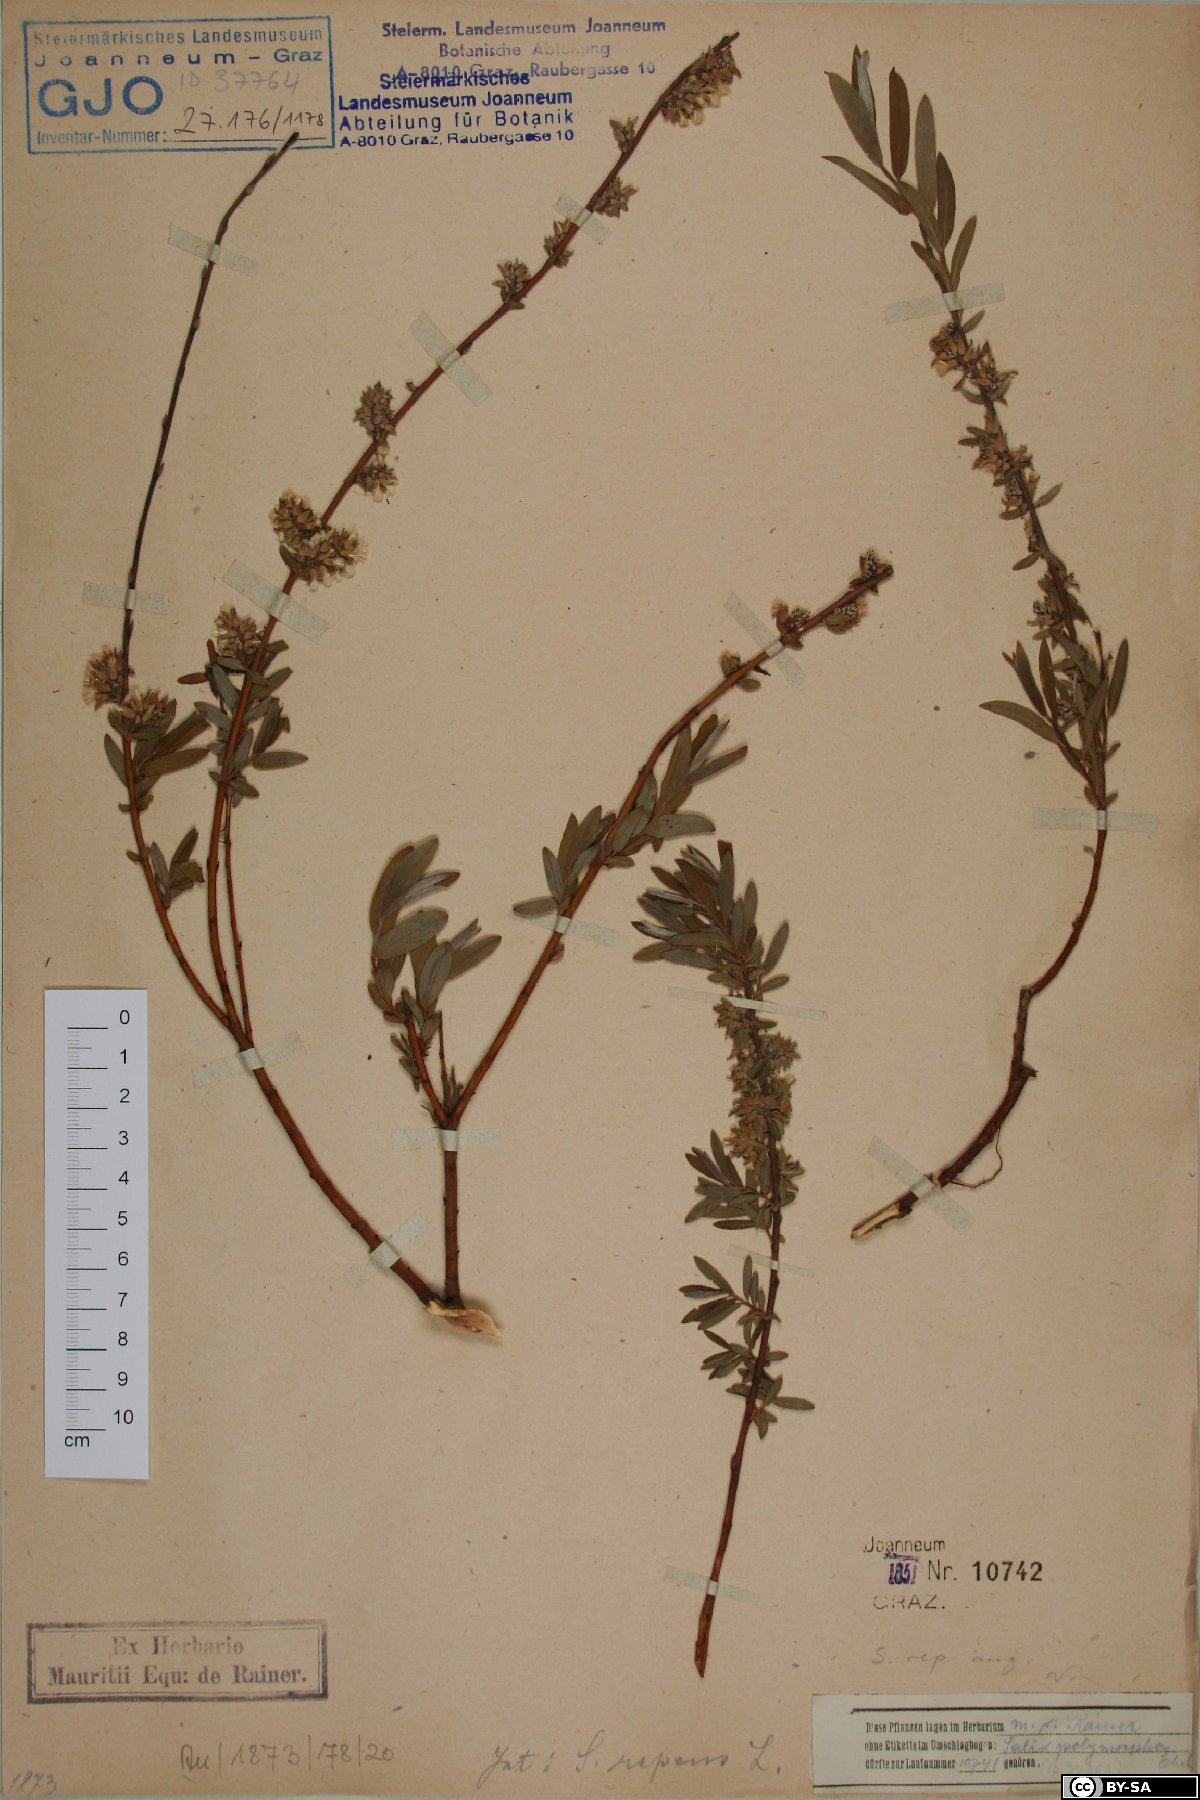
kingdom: Plantae
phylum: Tracheophyta
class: Magnoliopsida
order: Malpighiales
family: Salicaceae
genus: Salix
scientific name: Salix rosmarinifolia
